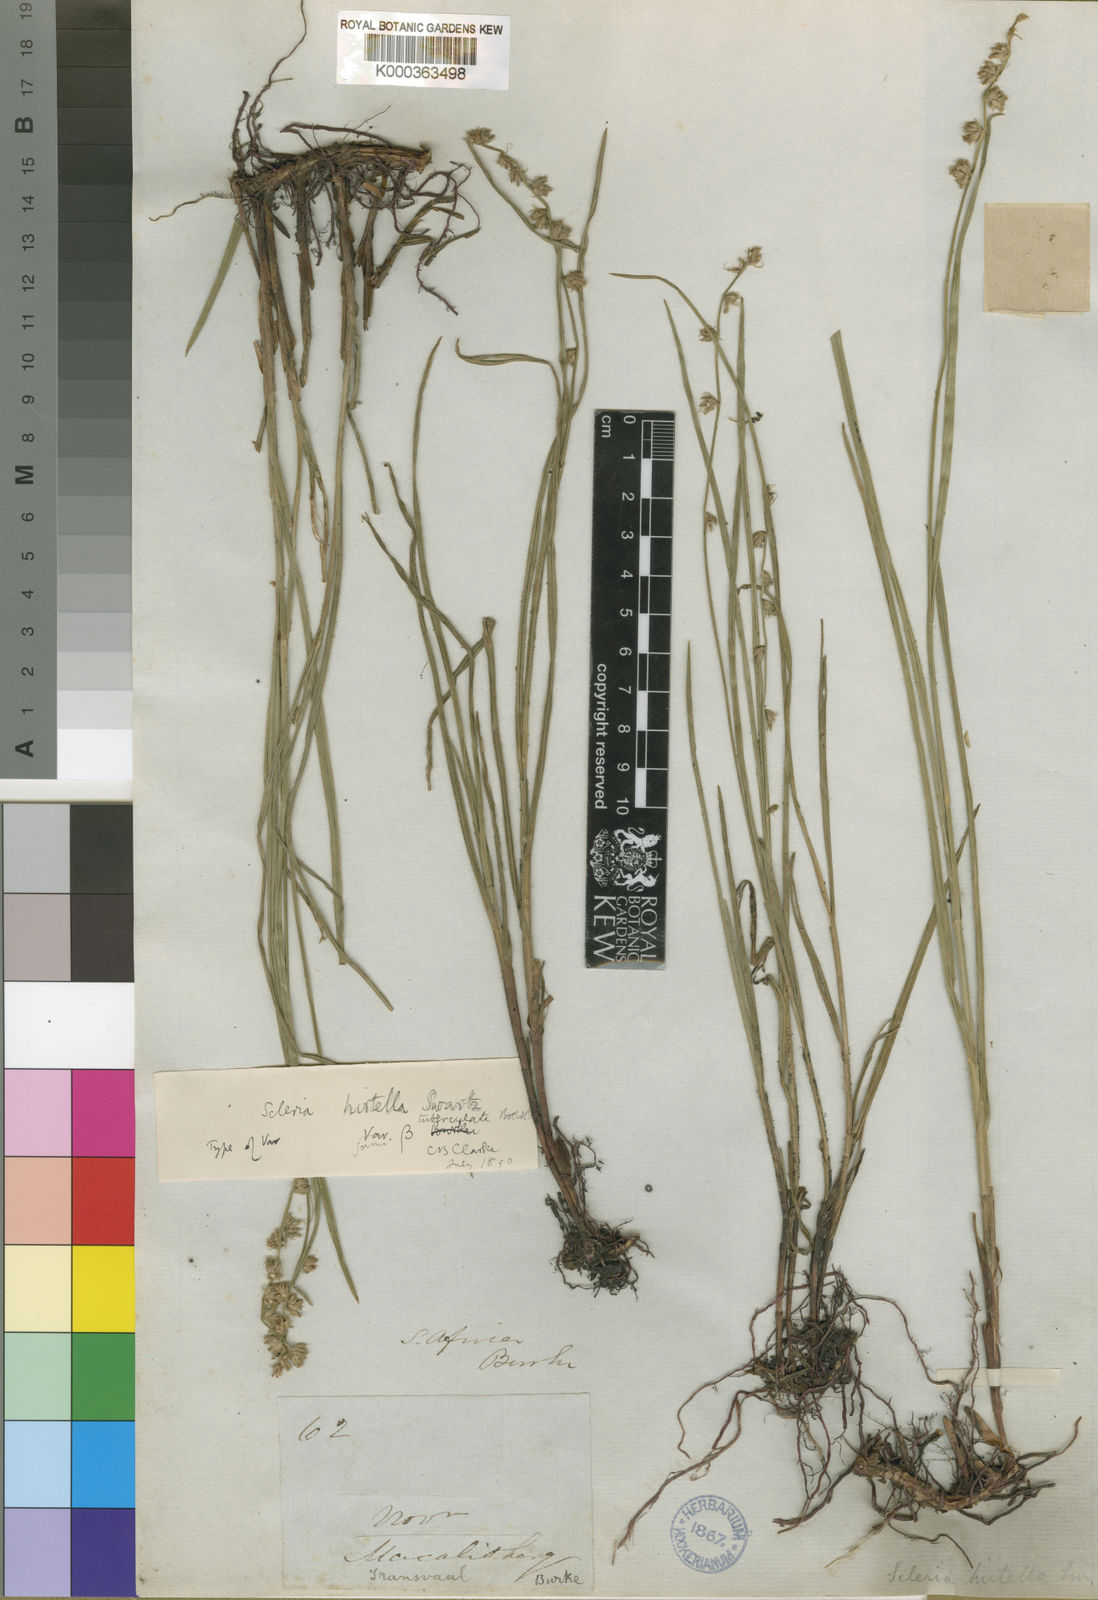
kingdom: Plantae
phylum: Tracheophyta
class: Liliopsida
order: Poales
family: Cyperaceae
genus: Scleria
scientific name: Scleria hirtella
